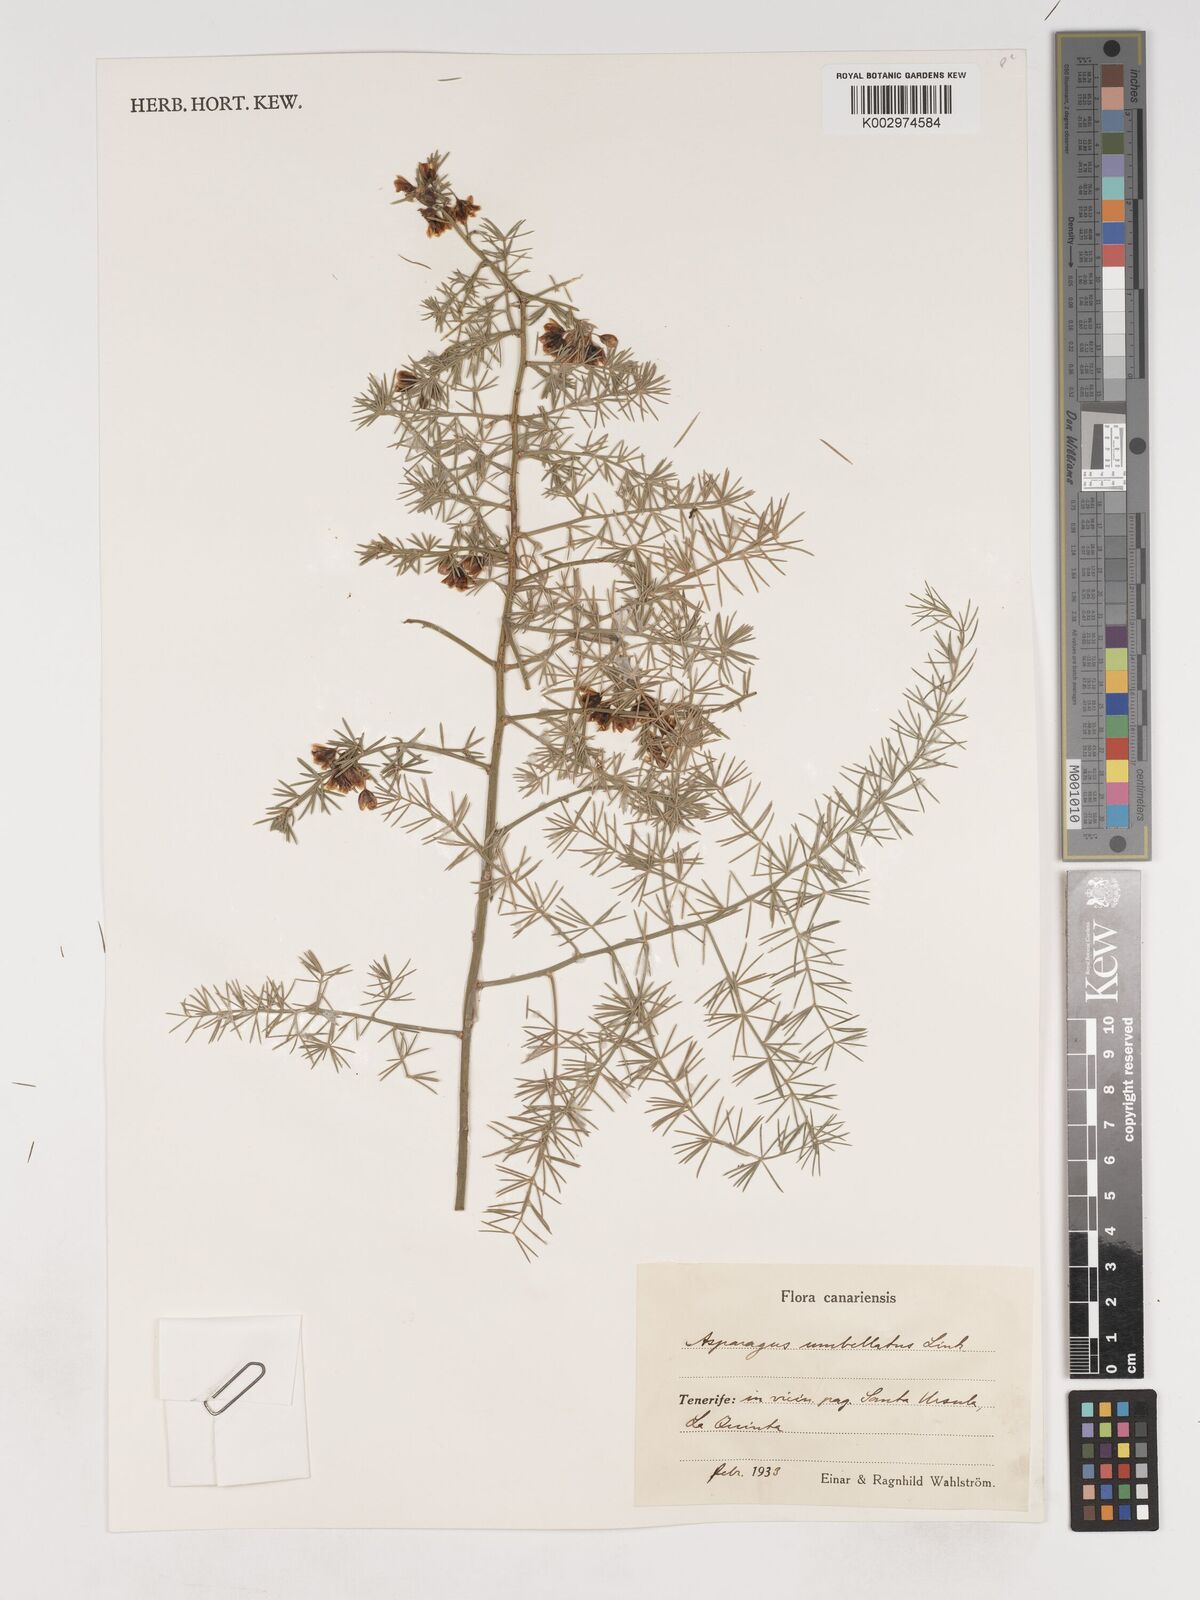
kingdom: Plantae
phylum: Tracheophyta
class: Liliopsida
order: Asparagales
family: Asparagaceae
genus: Asparagus
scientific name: Asparagus umbellatus
